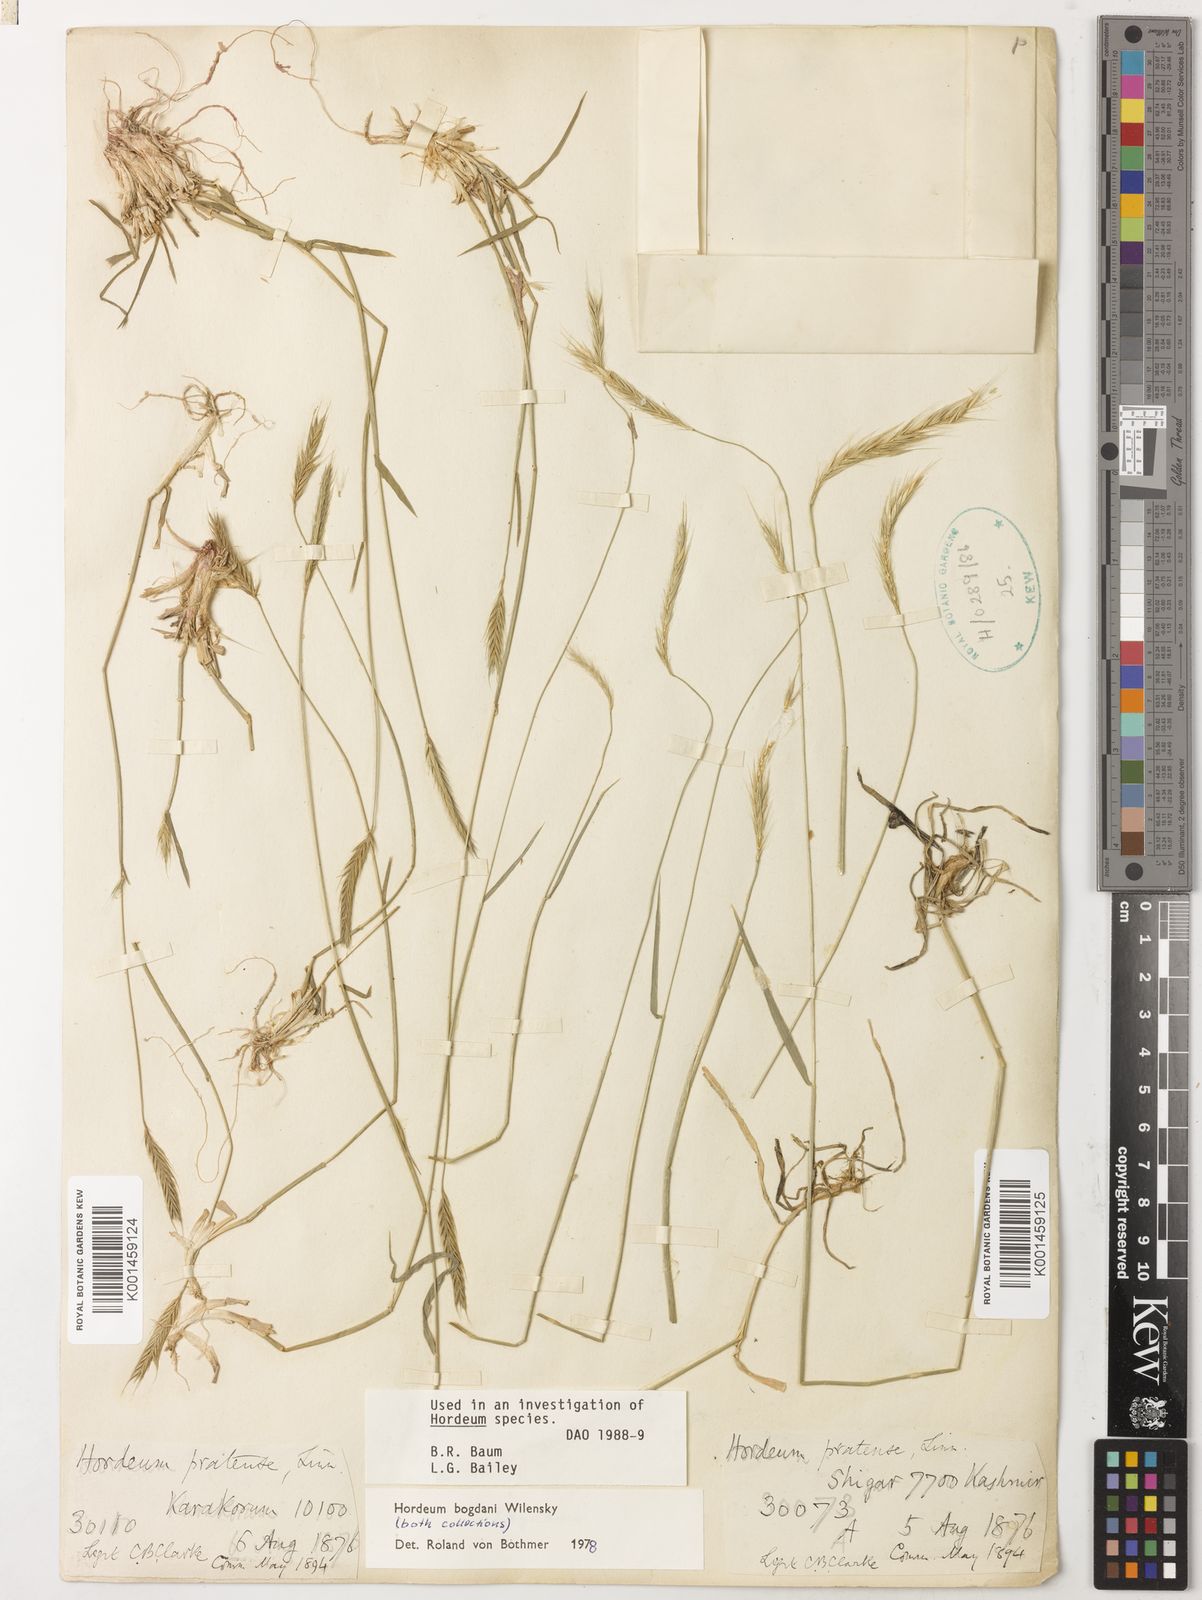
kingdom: Plantae
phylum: Tracheophyta
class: Liliopsida
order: Poales
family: Poaceae
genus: Hordeum
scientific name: Hordeum bogdanii
